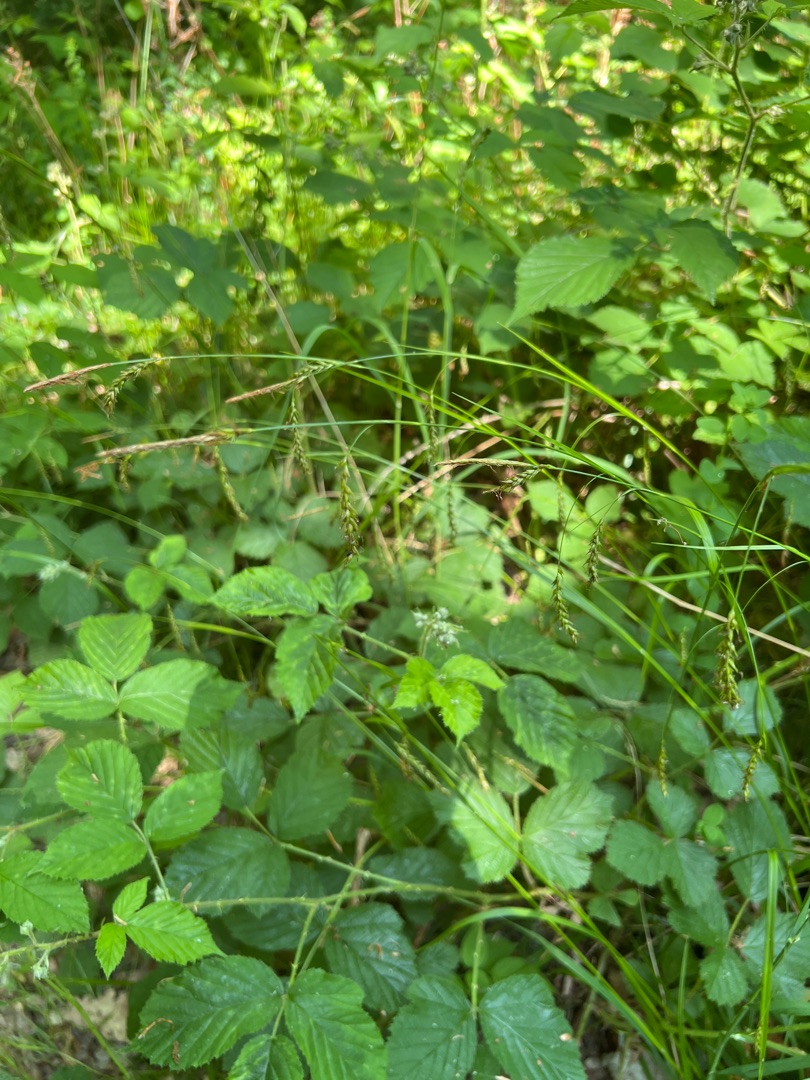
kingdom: Plantae
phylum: Tracheophyta
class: Liliopsida
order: Poales
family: Cyperaceae
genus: Carex
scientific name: Carex sylvatica
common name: Skov-star
